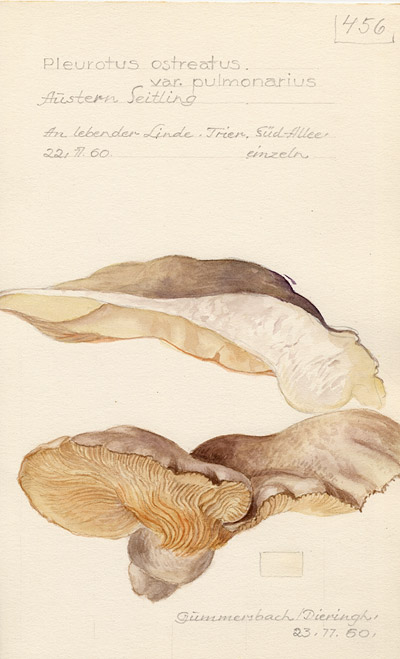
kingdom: Fungi
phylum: Basidiomycota
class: Agaricomycetes
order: Agaricales
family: Pleurotaceae
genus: Pleurotus
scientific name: Pleurotus pulmonarius
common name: Pale oyster
